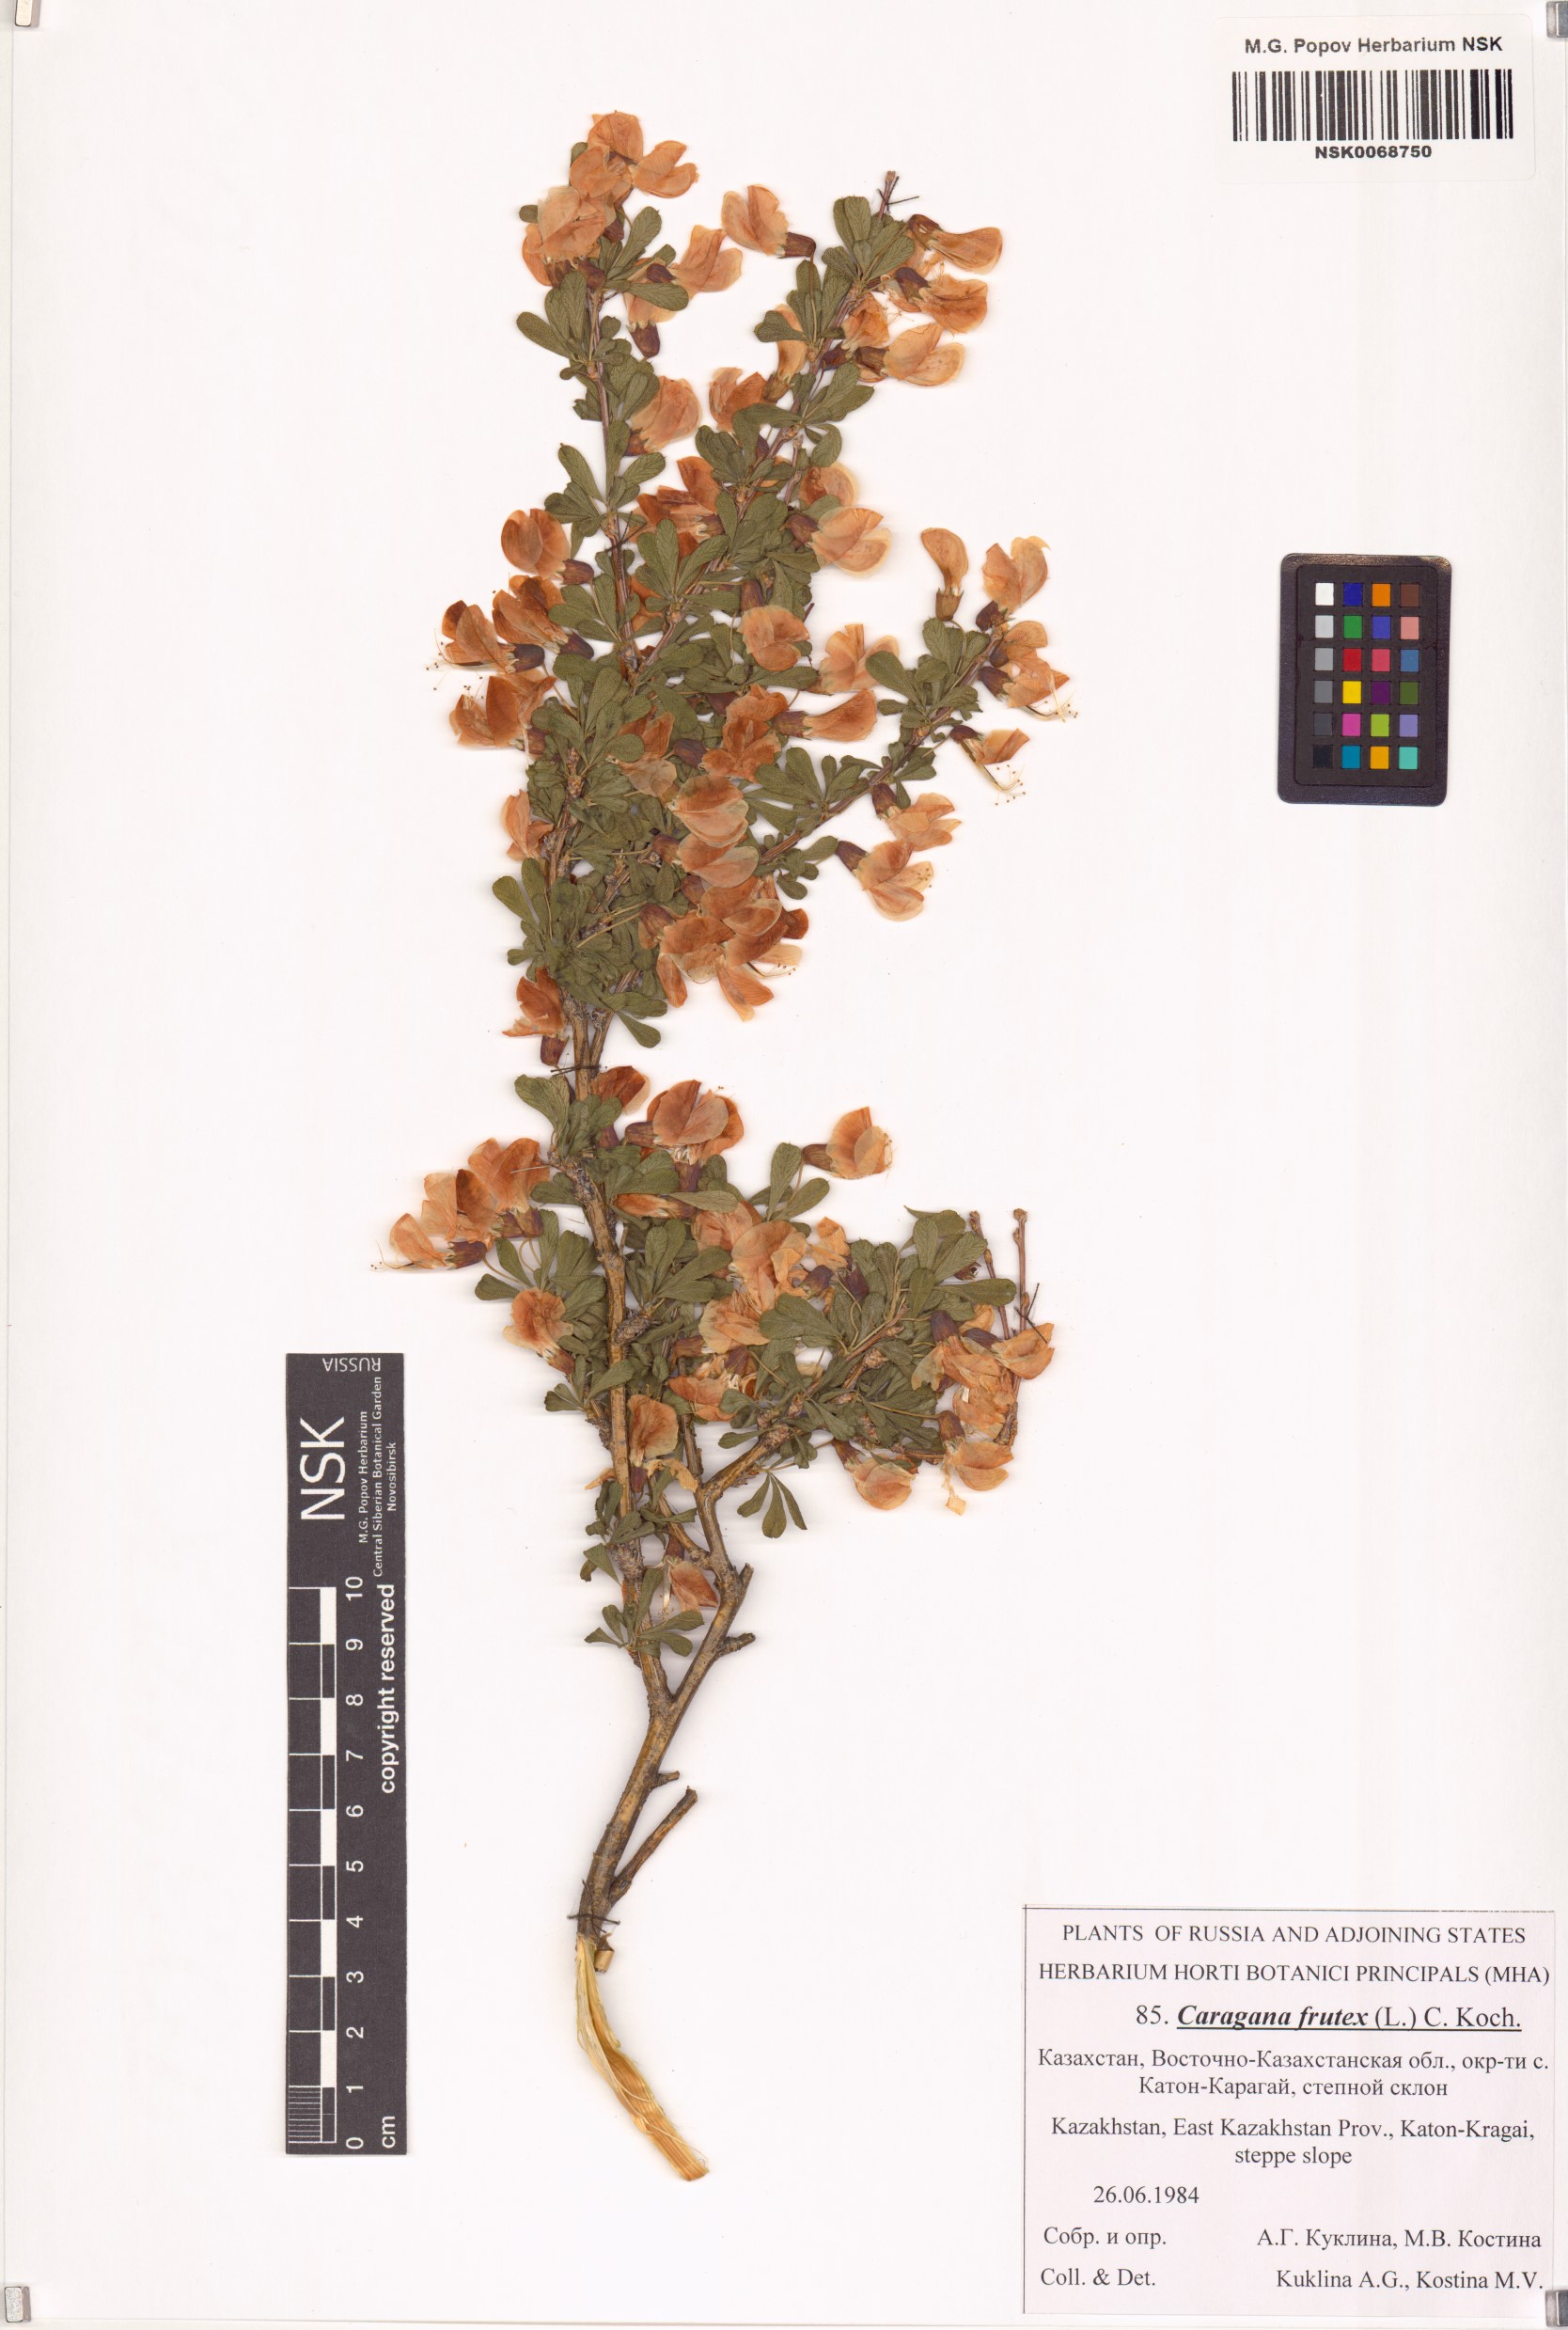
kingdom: Plantae
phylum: Tracheophyta
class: Magnoliopsida
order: Fabales
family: Fabaceae
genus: Caragana
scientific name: Caragana frutex
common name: Russian peashrub
